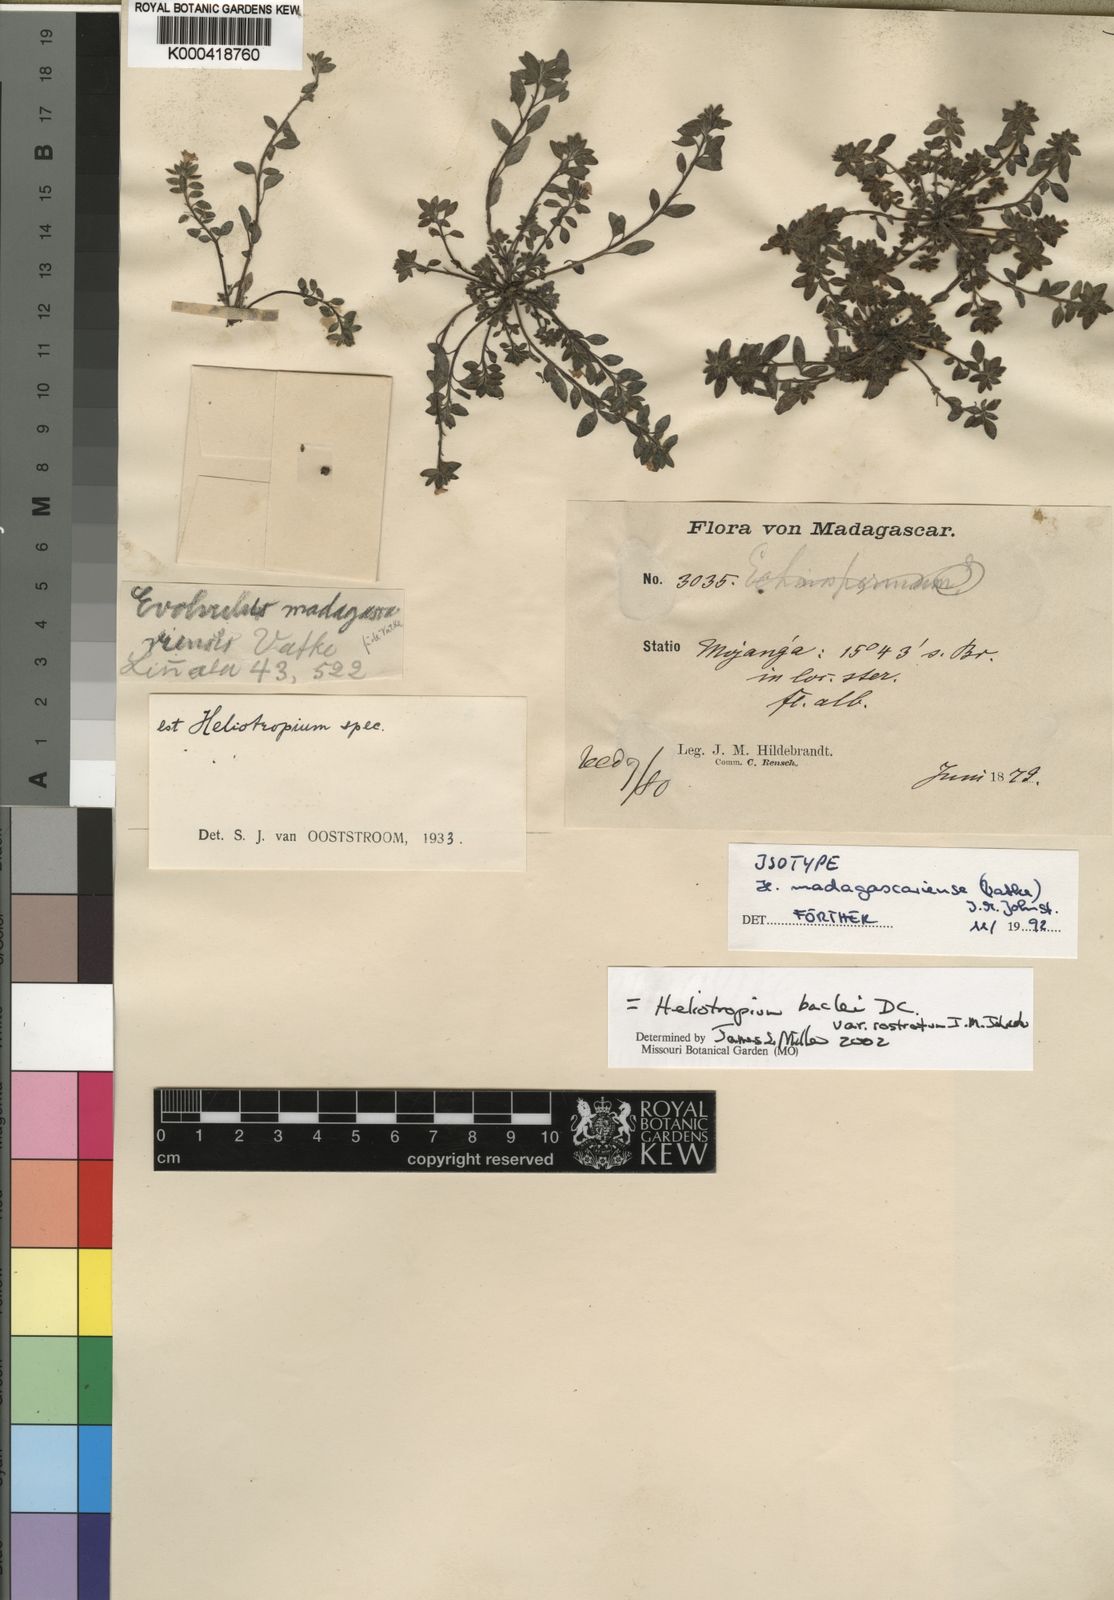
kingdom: Plantae
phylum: Tracheophyta
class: Magnoliopsida
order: Boraginales
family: Heliotropiaceae
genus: Euploca
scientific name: Euploca baclei
